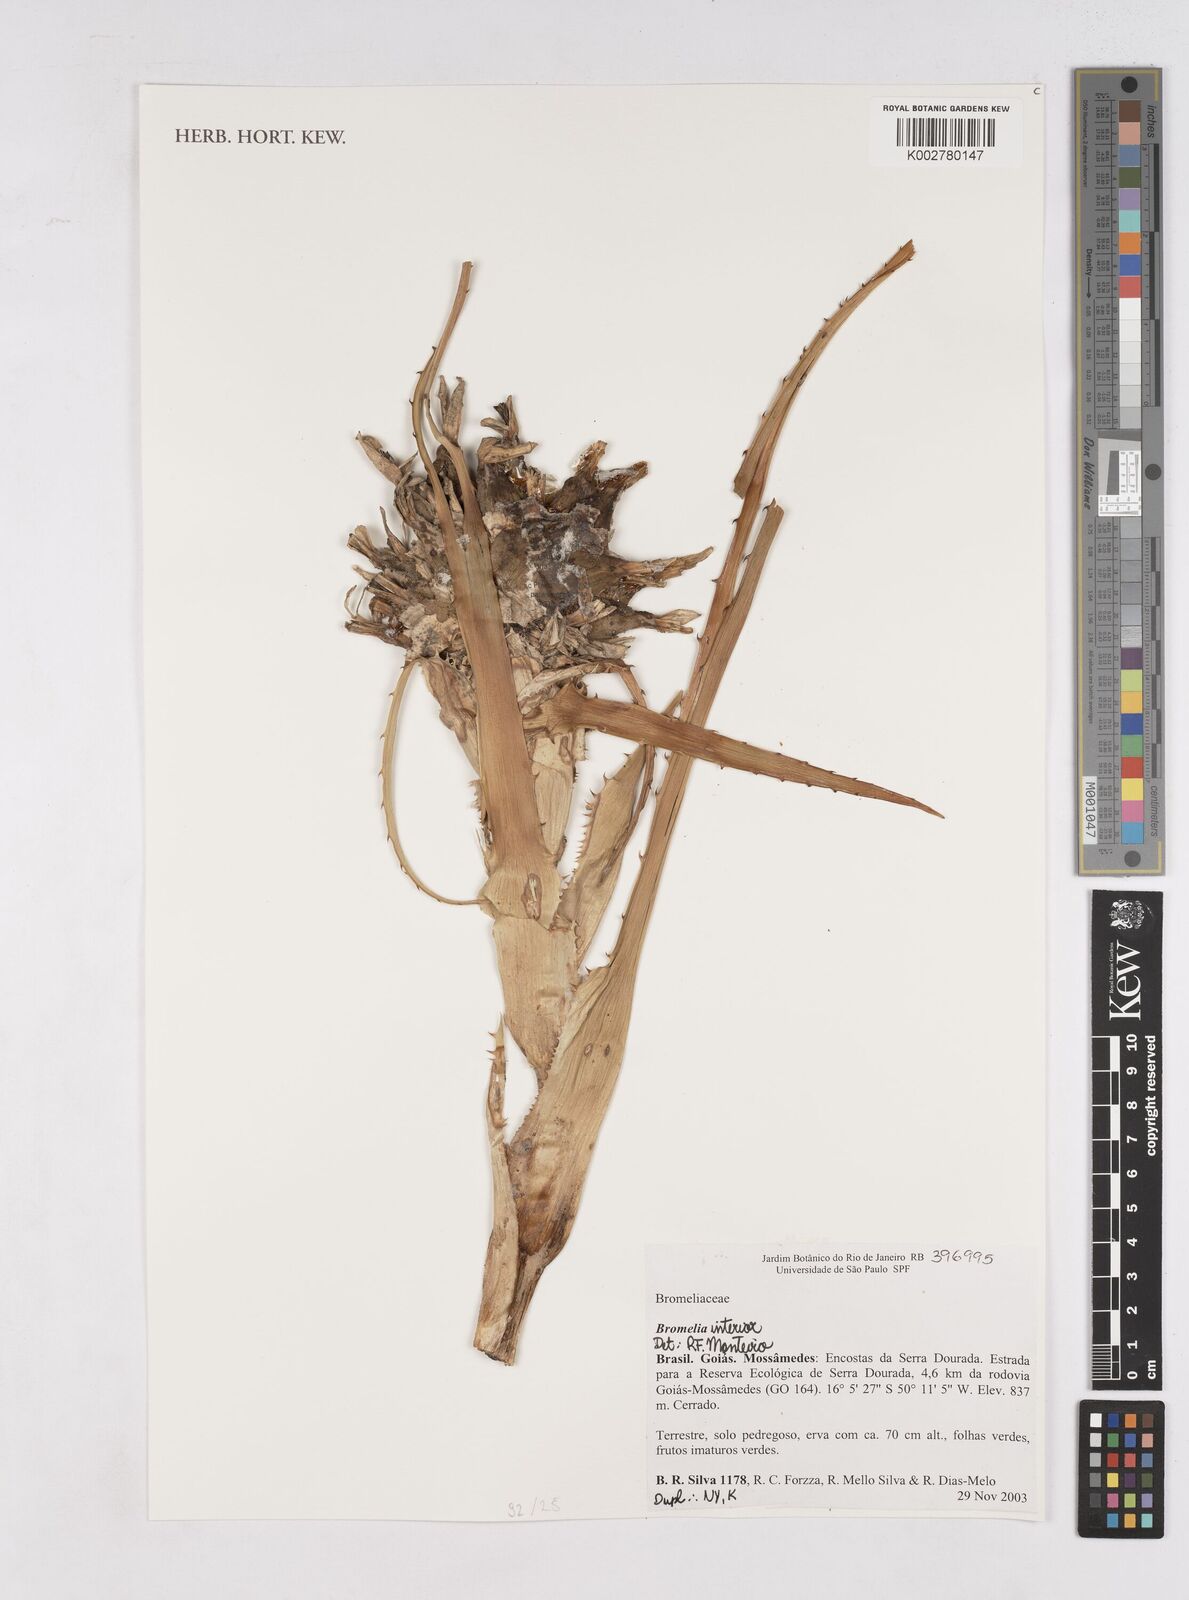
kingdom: Plantae
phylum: Tracheophyta
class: Liliopsida
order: Poales
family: Bromeliaceae
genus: Bromelia
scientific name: Bromelia interior
